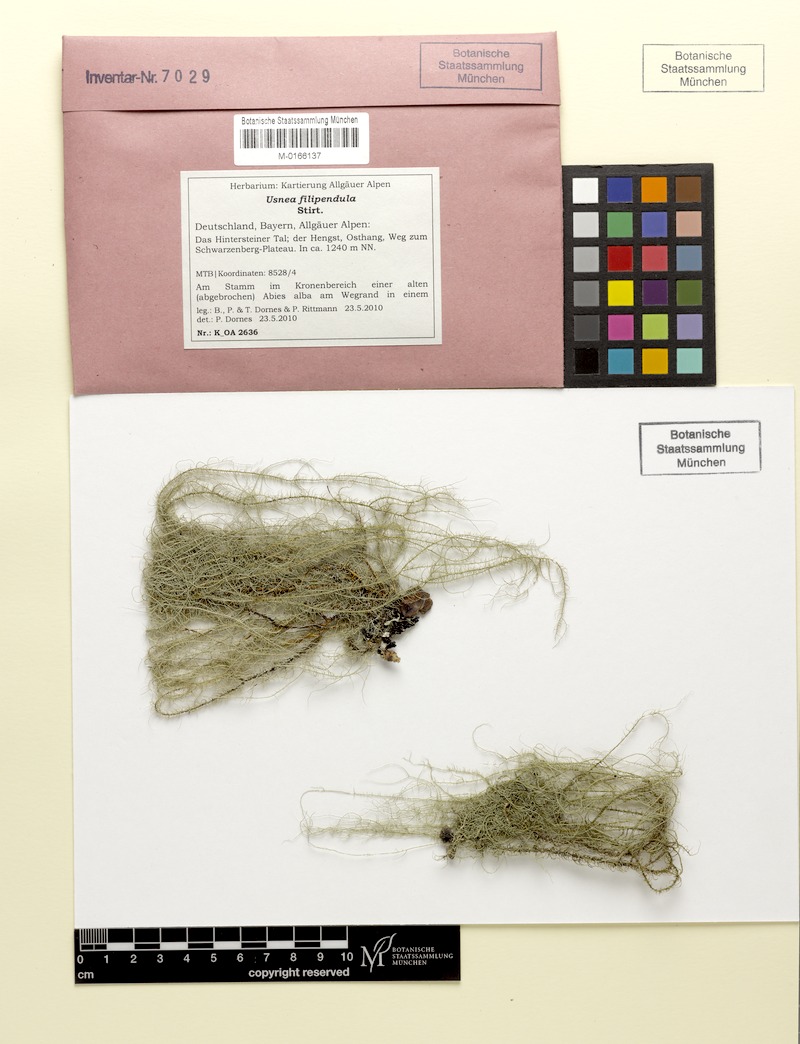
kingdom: Fungi
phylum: Ascomycota
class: Lecanoromycetes
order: Lecanorales
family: Parmeliaceae
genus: Usnea
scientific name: Usnea filipendula
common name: Fishbone beard lichen
